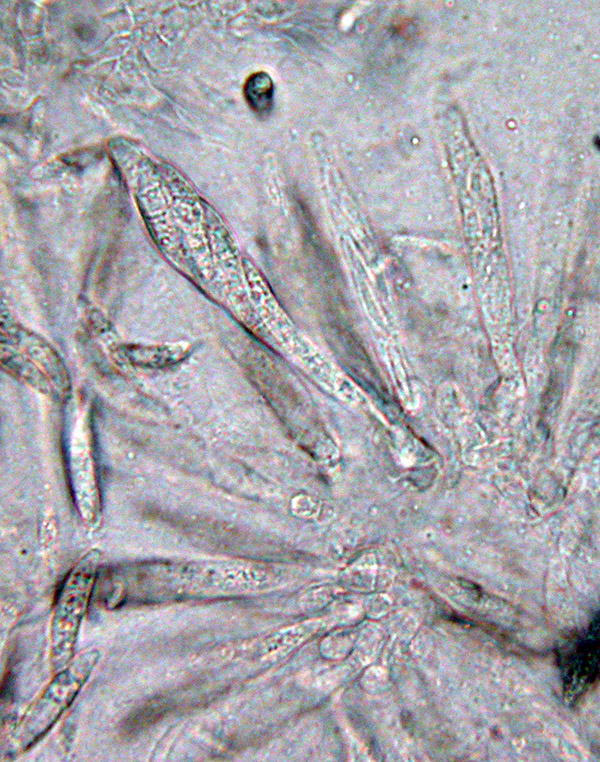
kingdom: Fungi
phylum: Ascomycota
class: Sordariomycetes
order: Hypocreales
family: Nectriaceae
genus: Fusarium
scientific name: Fusarium roseum
